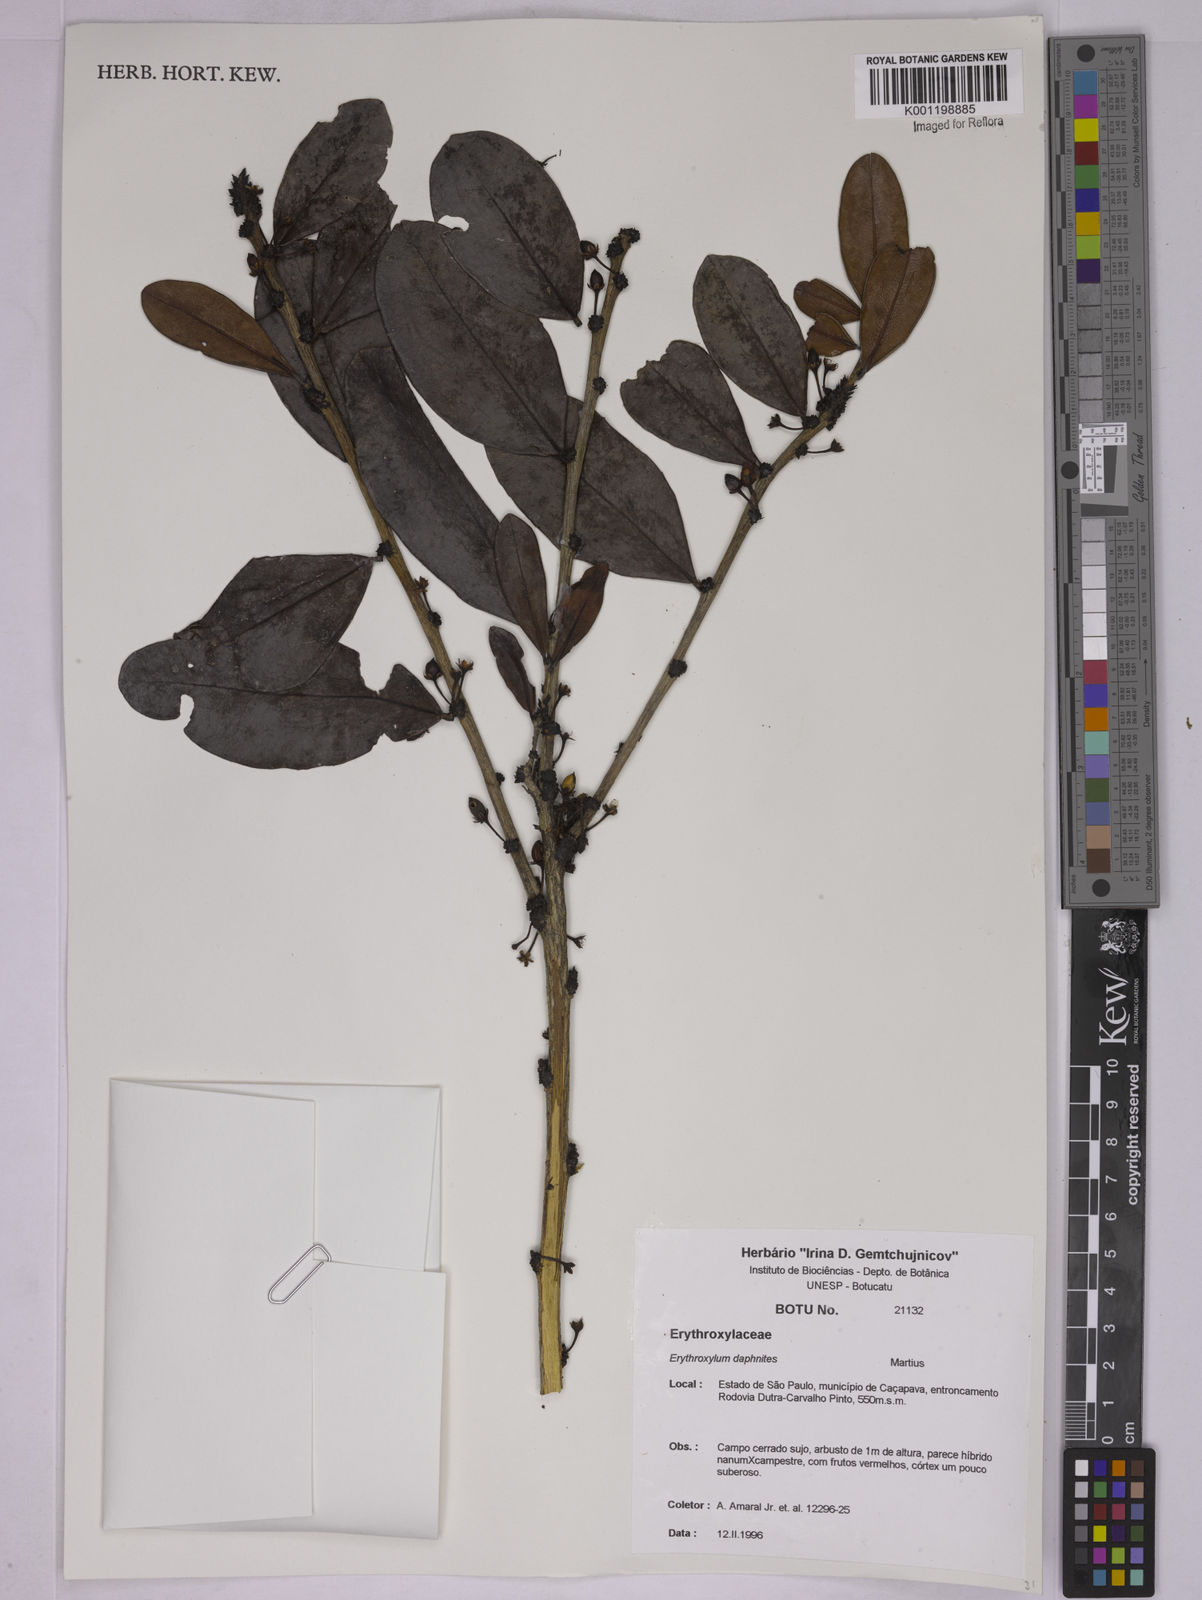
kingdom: Plantae
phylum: Tracheophyta
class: Magnoliopsida
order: Malpighiales
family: Erythroxylaceae
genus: Erythroxylum
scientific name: Erythroxylum daphnites
